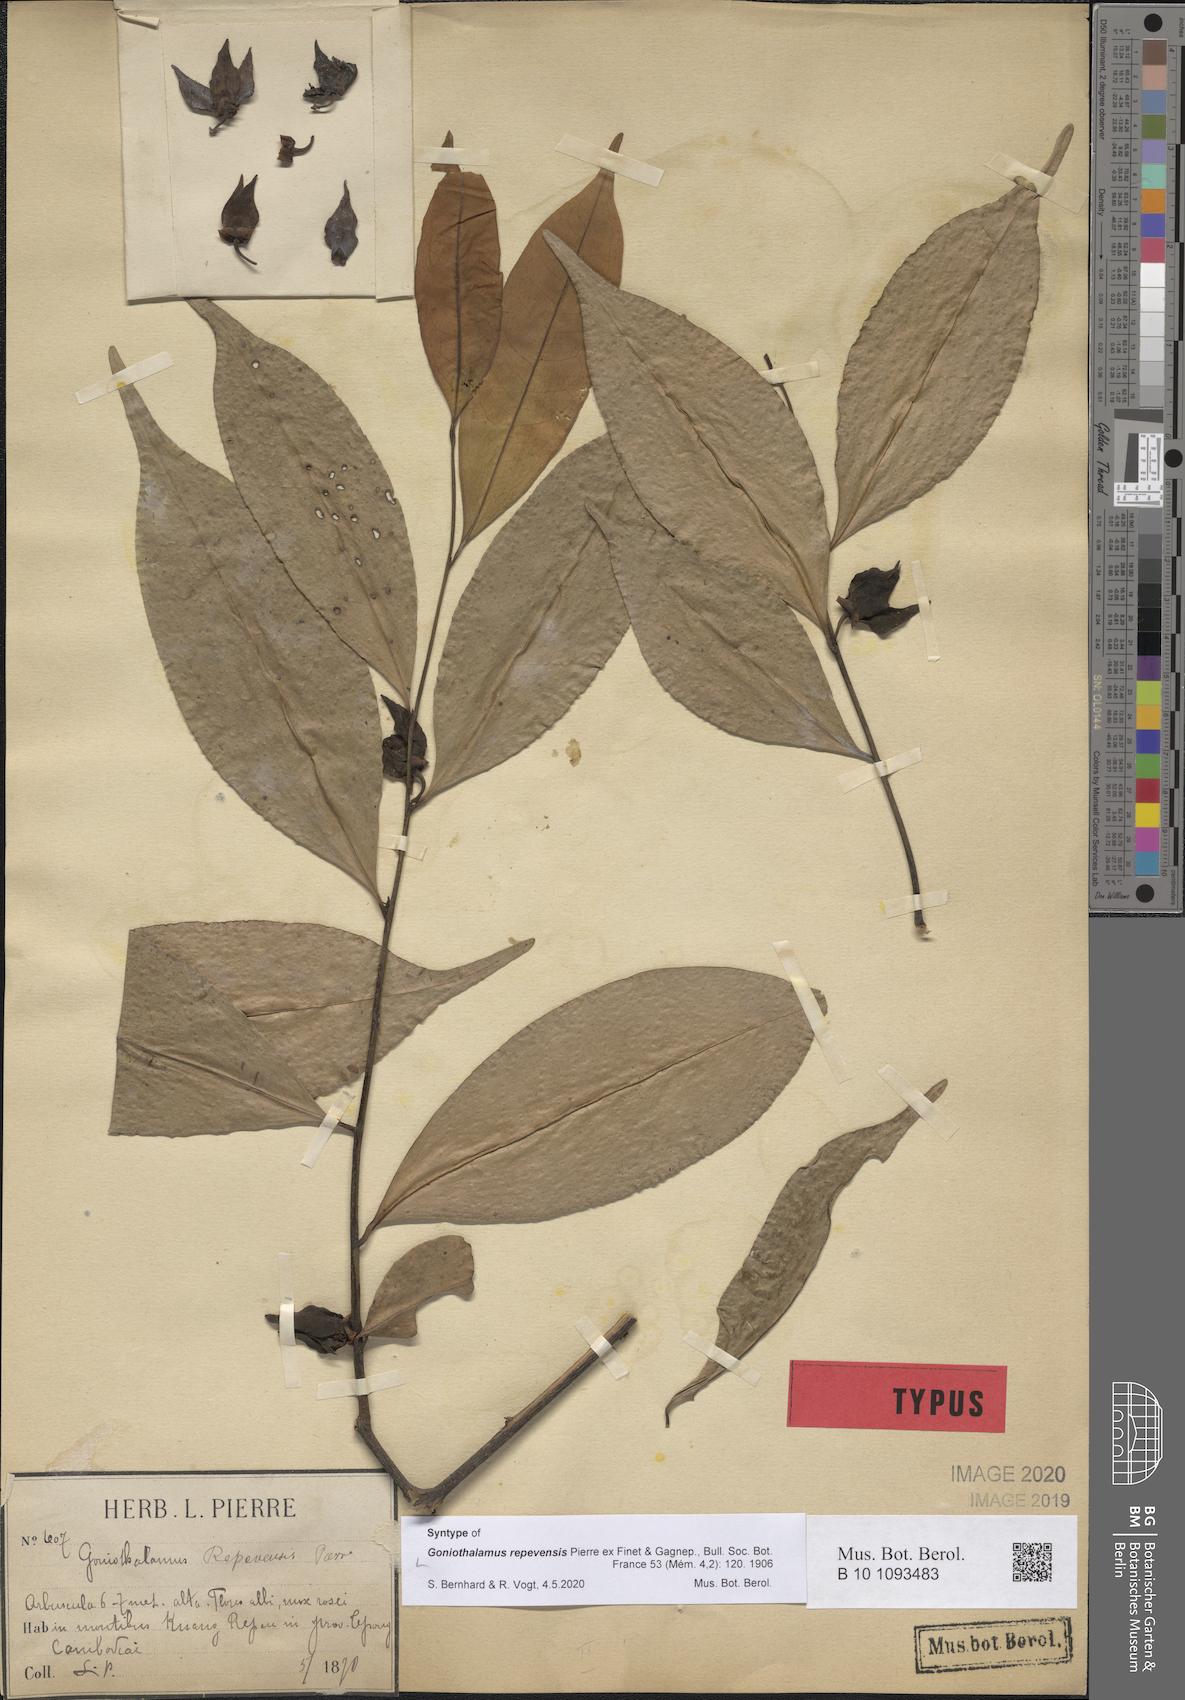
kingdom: Plantae
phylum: Tracheophyta
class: Magnoliopsida
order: Magnoliales
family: Annonaceae
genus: Goniothalamus
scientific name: Goniothalamus repevensis
